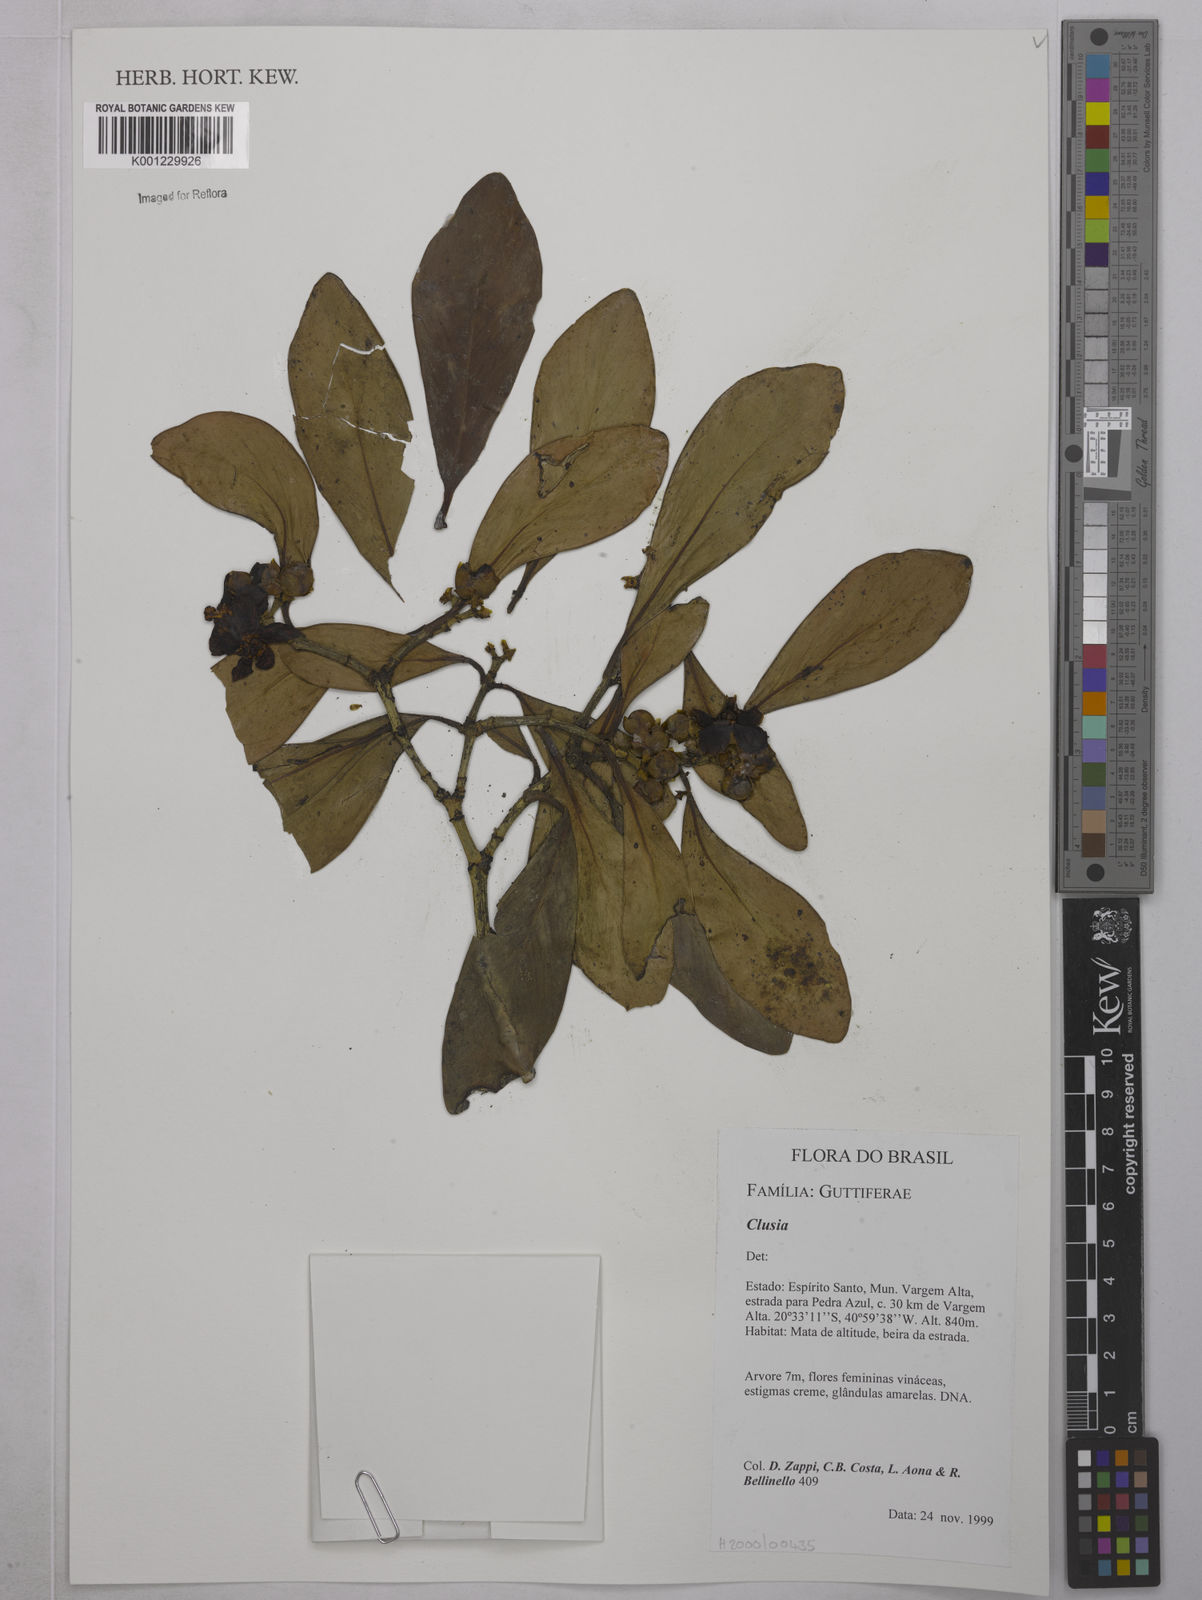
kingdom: Plantae
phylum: Tracheophyta
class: Magnoliopsida
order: Malpighiales
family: Clusiaceae
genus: Clusia
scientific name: Clusia
